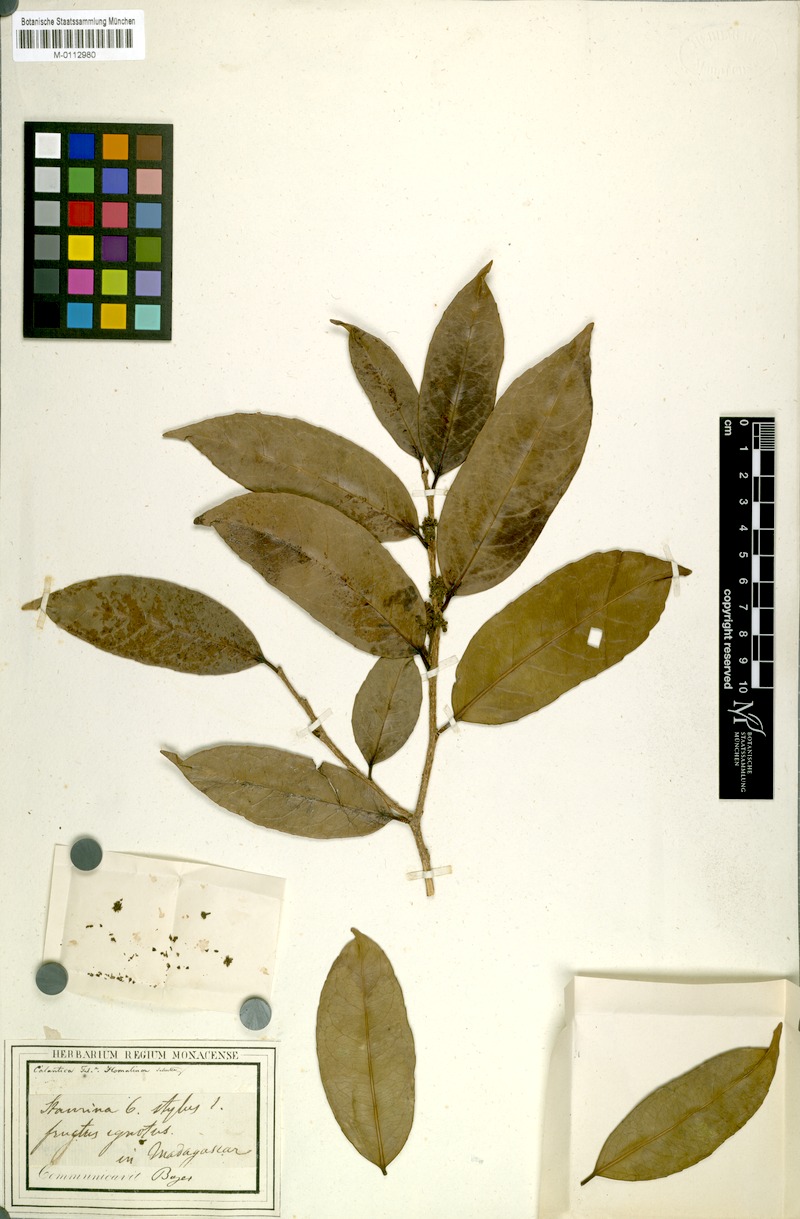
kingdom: Plantae
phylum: Tracheophyta
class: Magnoliopsida
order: Malpighiales
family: Salicaceae
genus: Calantica
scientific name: Calantica
